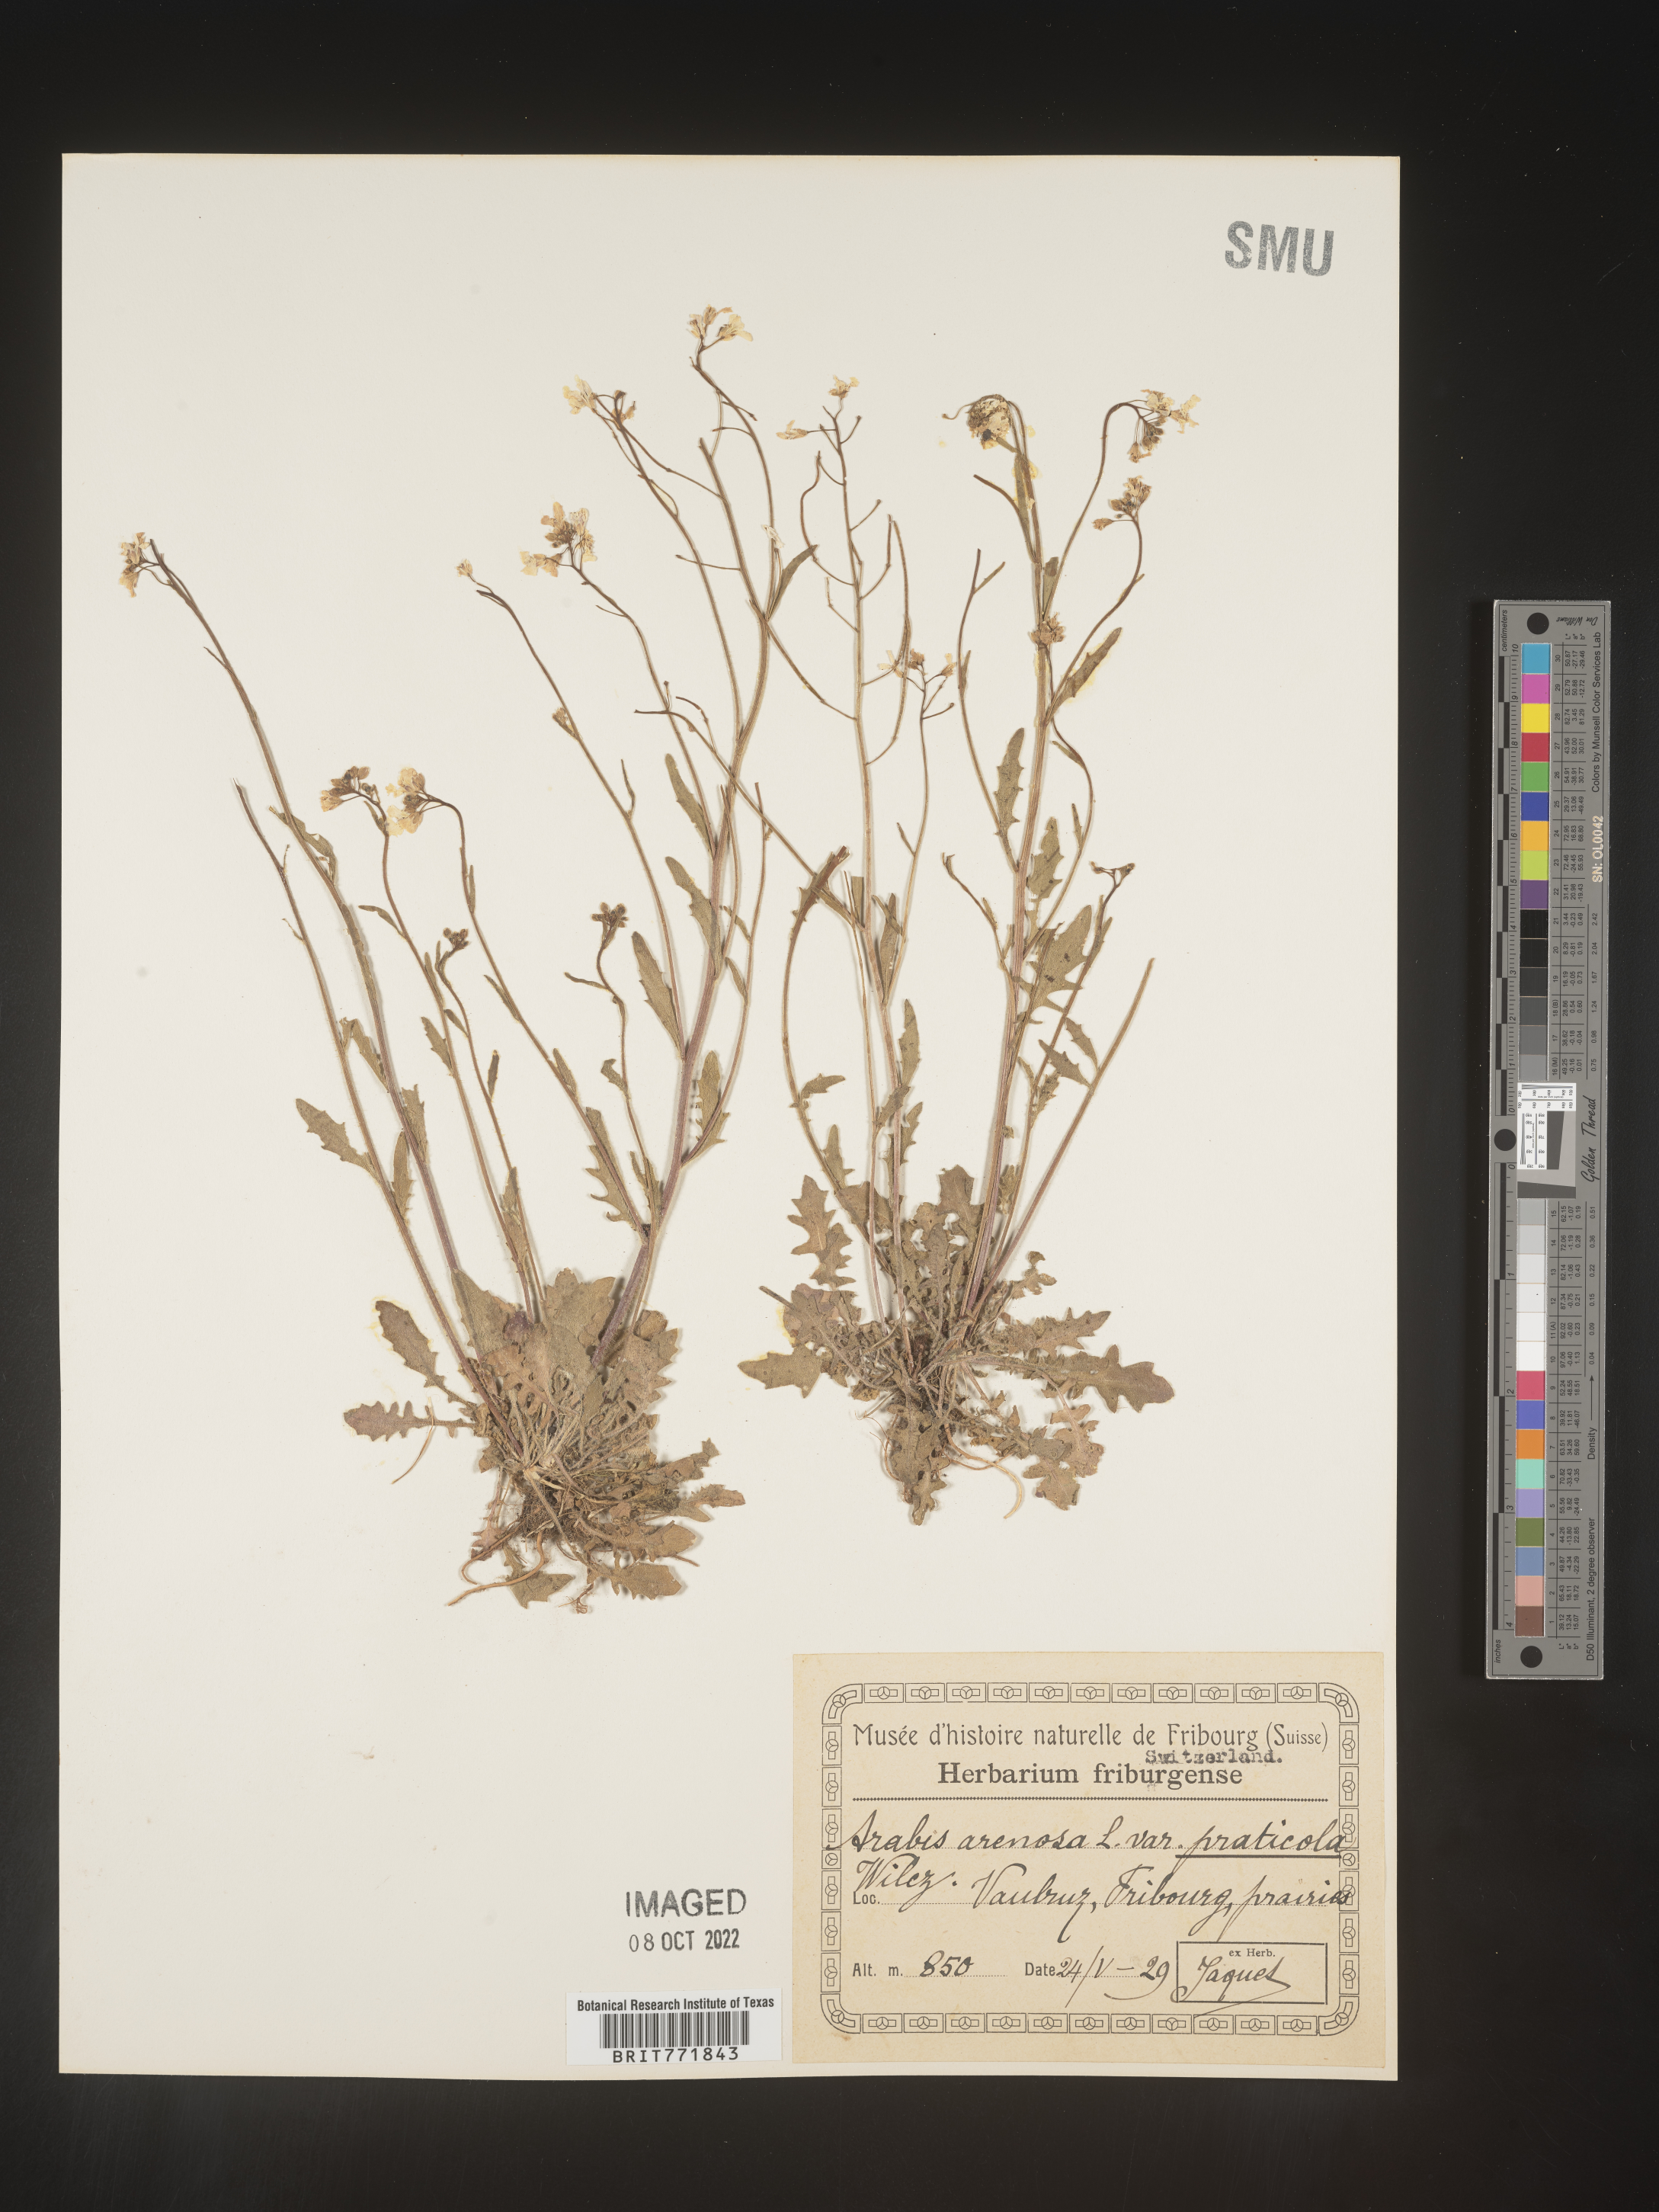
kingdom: Plantae
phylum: Tracheophyta
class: Magnoliopsida
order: Brassicales
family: Brassicaceae
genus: Arabis
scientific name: Arabis
